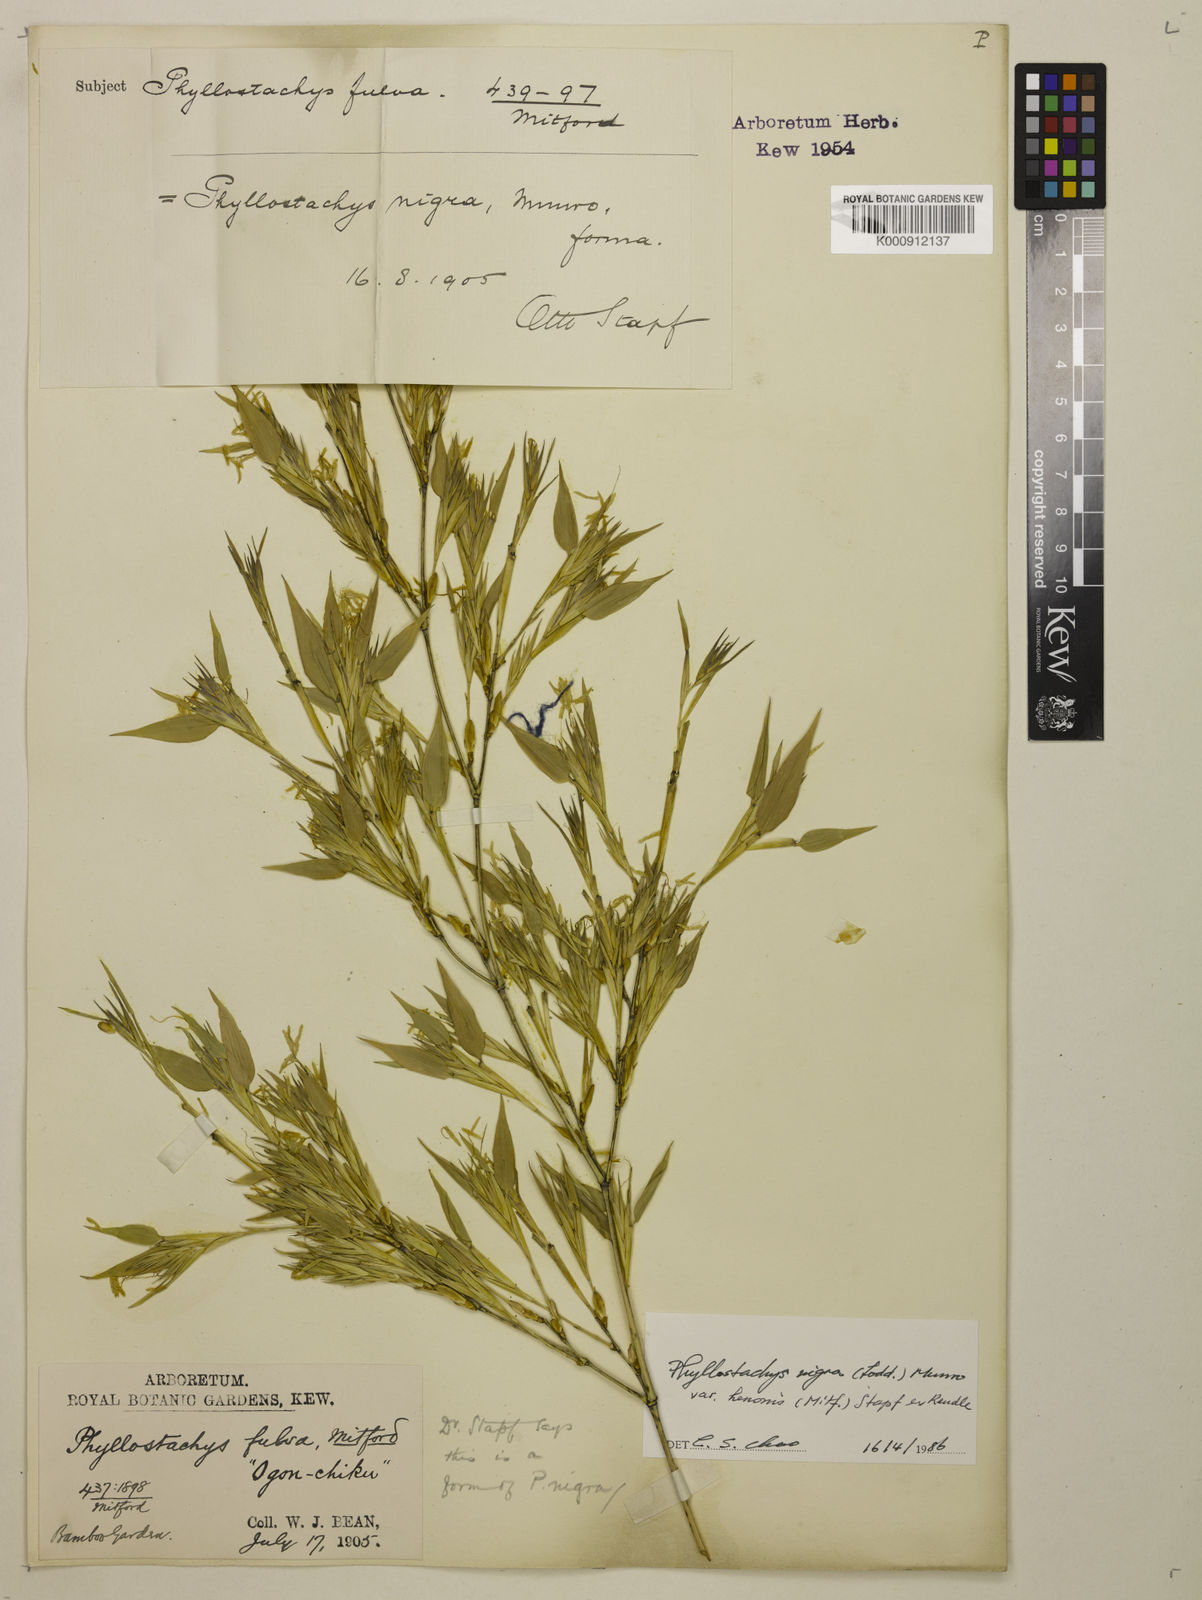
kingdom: Plantae
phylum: Tracheophyta
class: Liliopsida
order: Poales
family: Poaceae
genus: Phyllostachys
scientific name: Phyllostachys nigra
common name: Black bamboo
